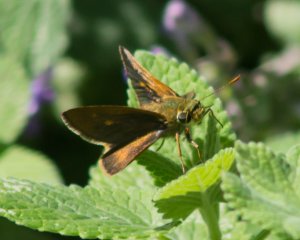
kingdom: Animalia
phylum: Arthropoda
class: Insecta
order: Lepidoptera
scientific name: Lepidoptera
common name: Butterflies
